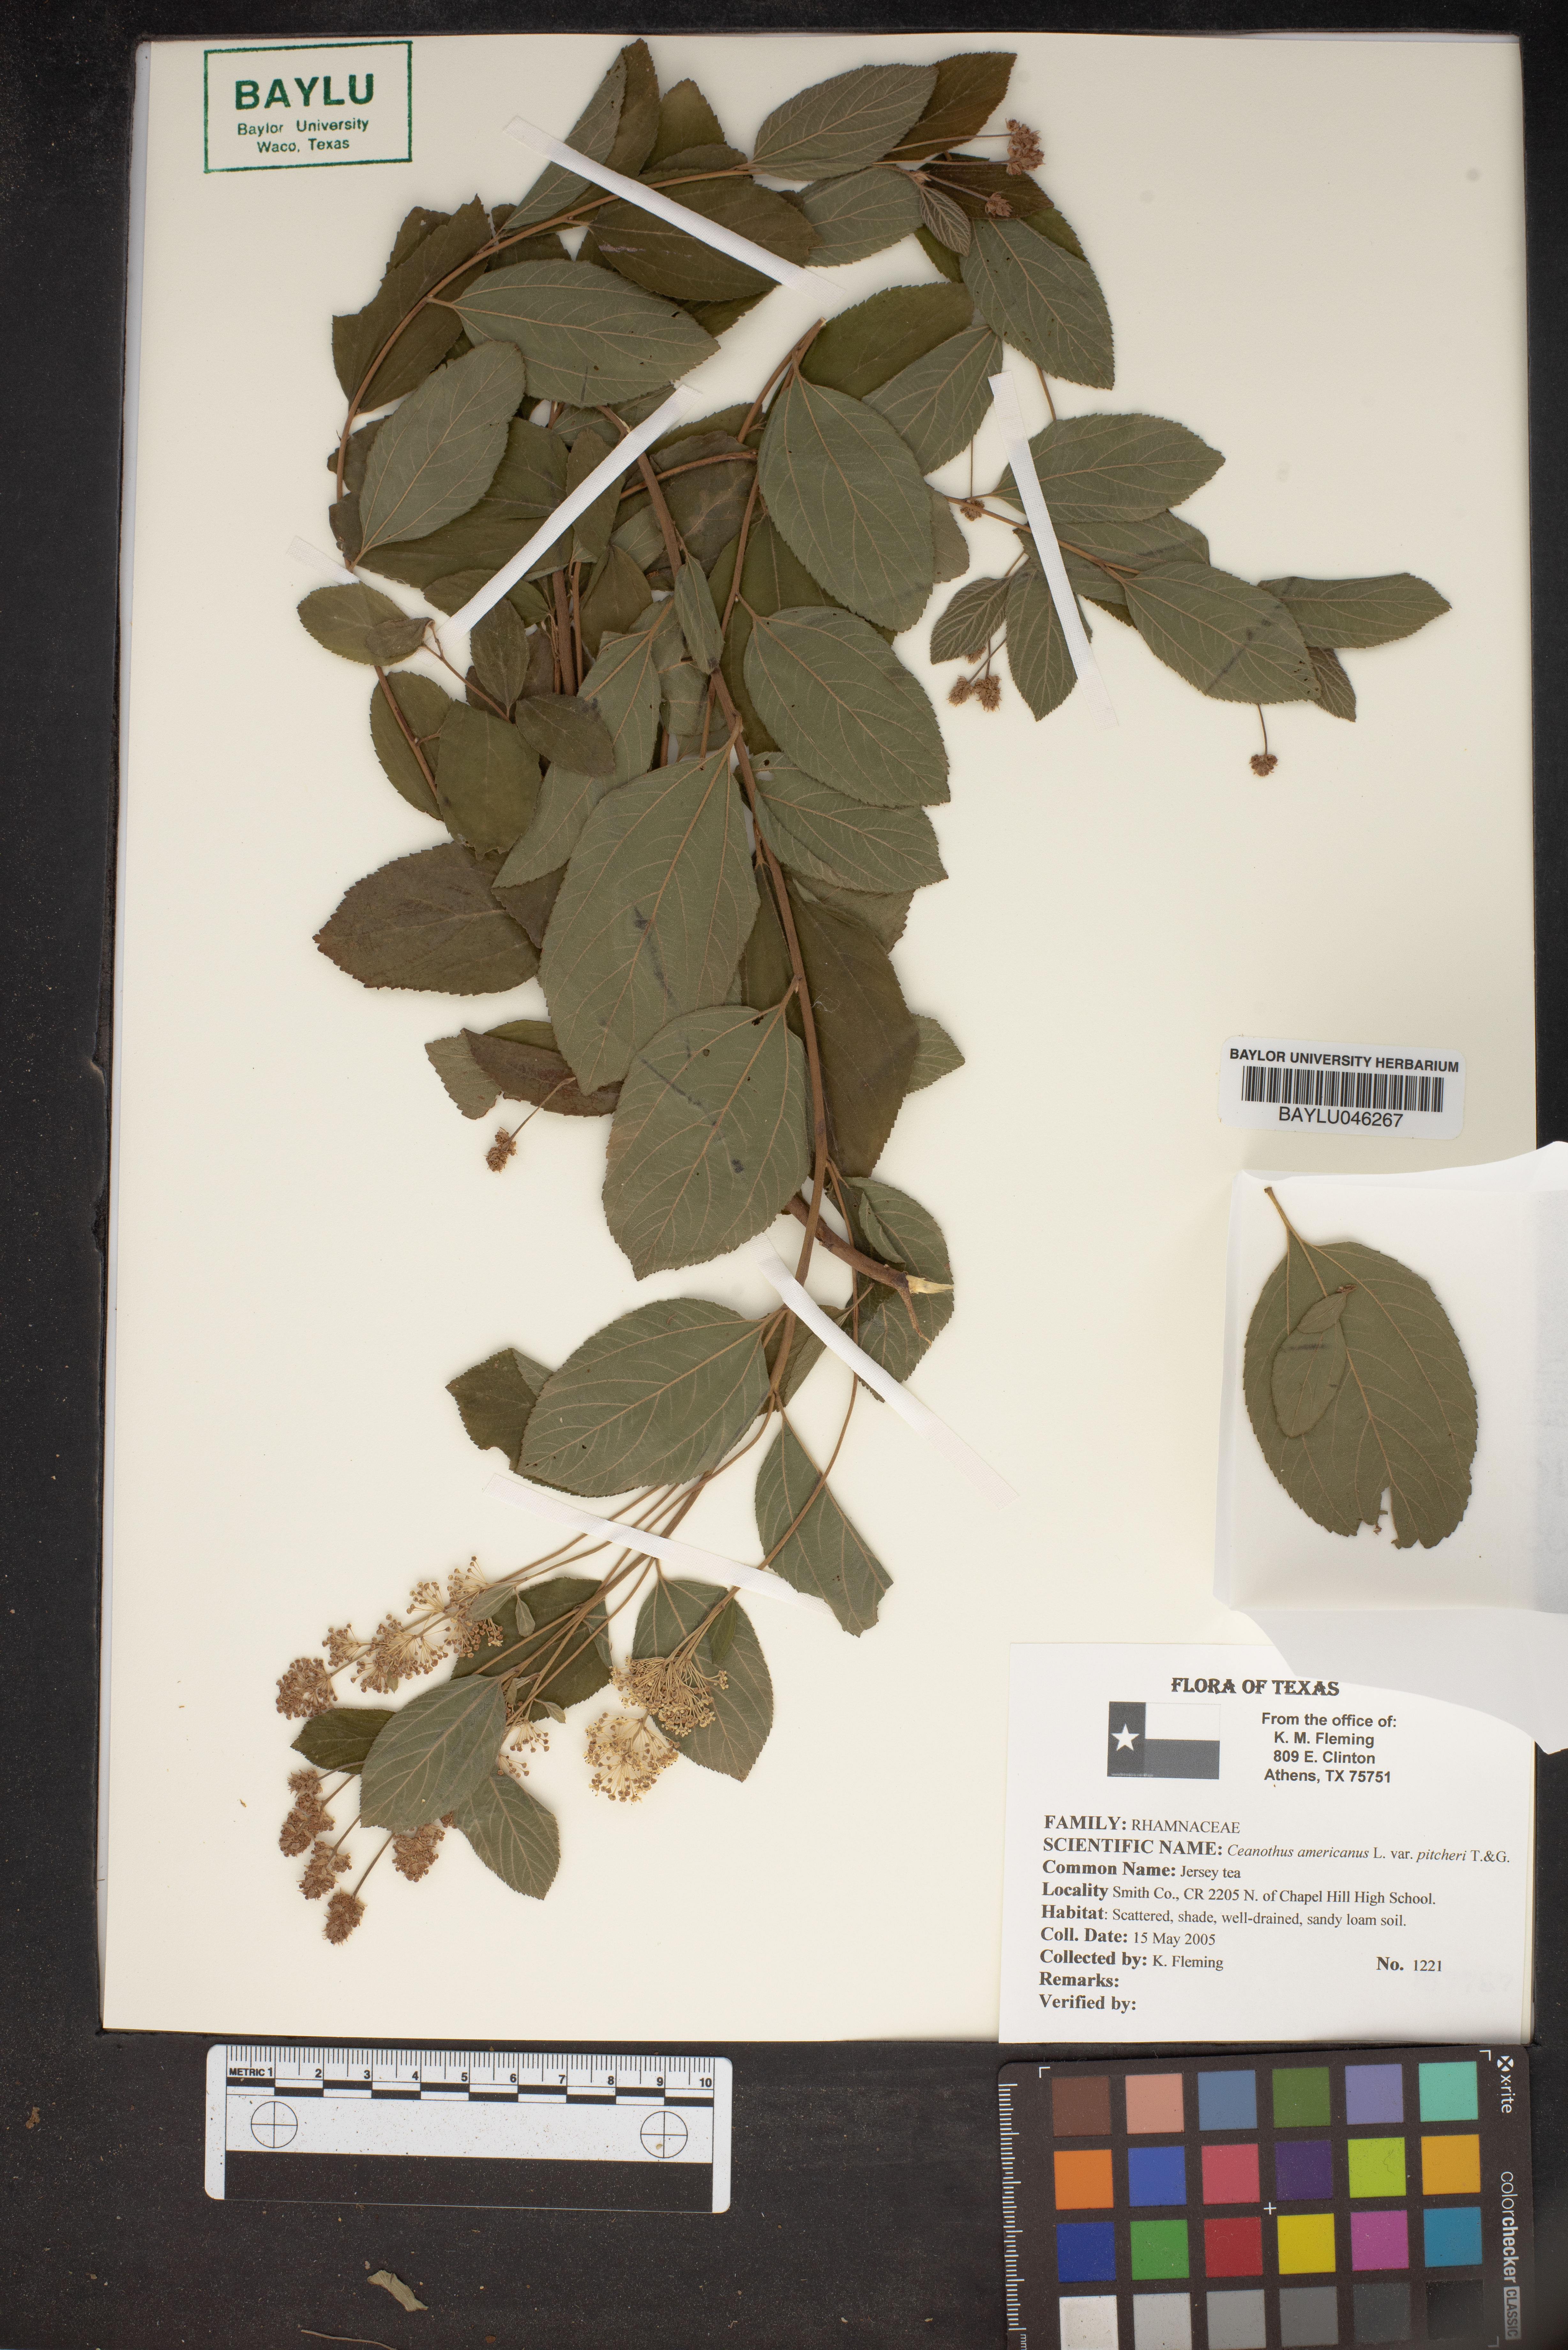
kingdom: Plantae
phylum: Tracheophyta
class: Magnoliopsida
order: Rosales
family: Rhamnaceae
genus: Ceanothus
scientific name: Ceanothus americanus
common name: Redroot
